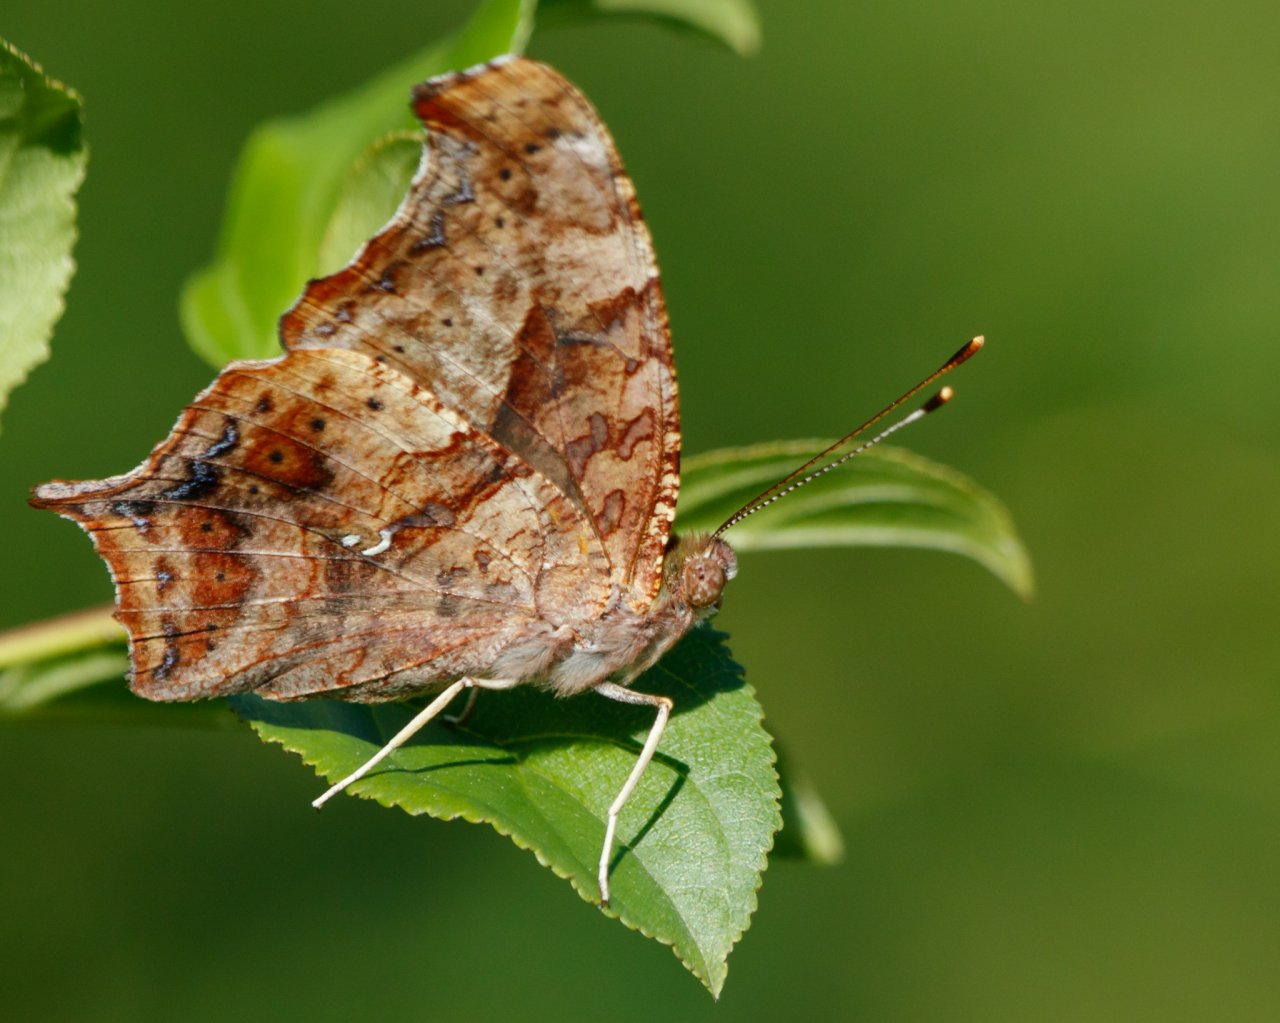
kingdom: Animalia
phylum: Arthropoda
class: Insecta
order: Lepidoptera
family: Nymphalidae
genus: Polygonia
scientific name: Polygonia interrogationis
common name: Question Mark
